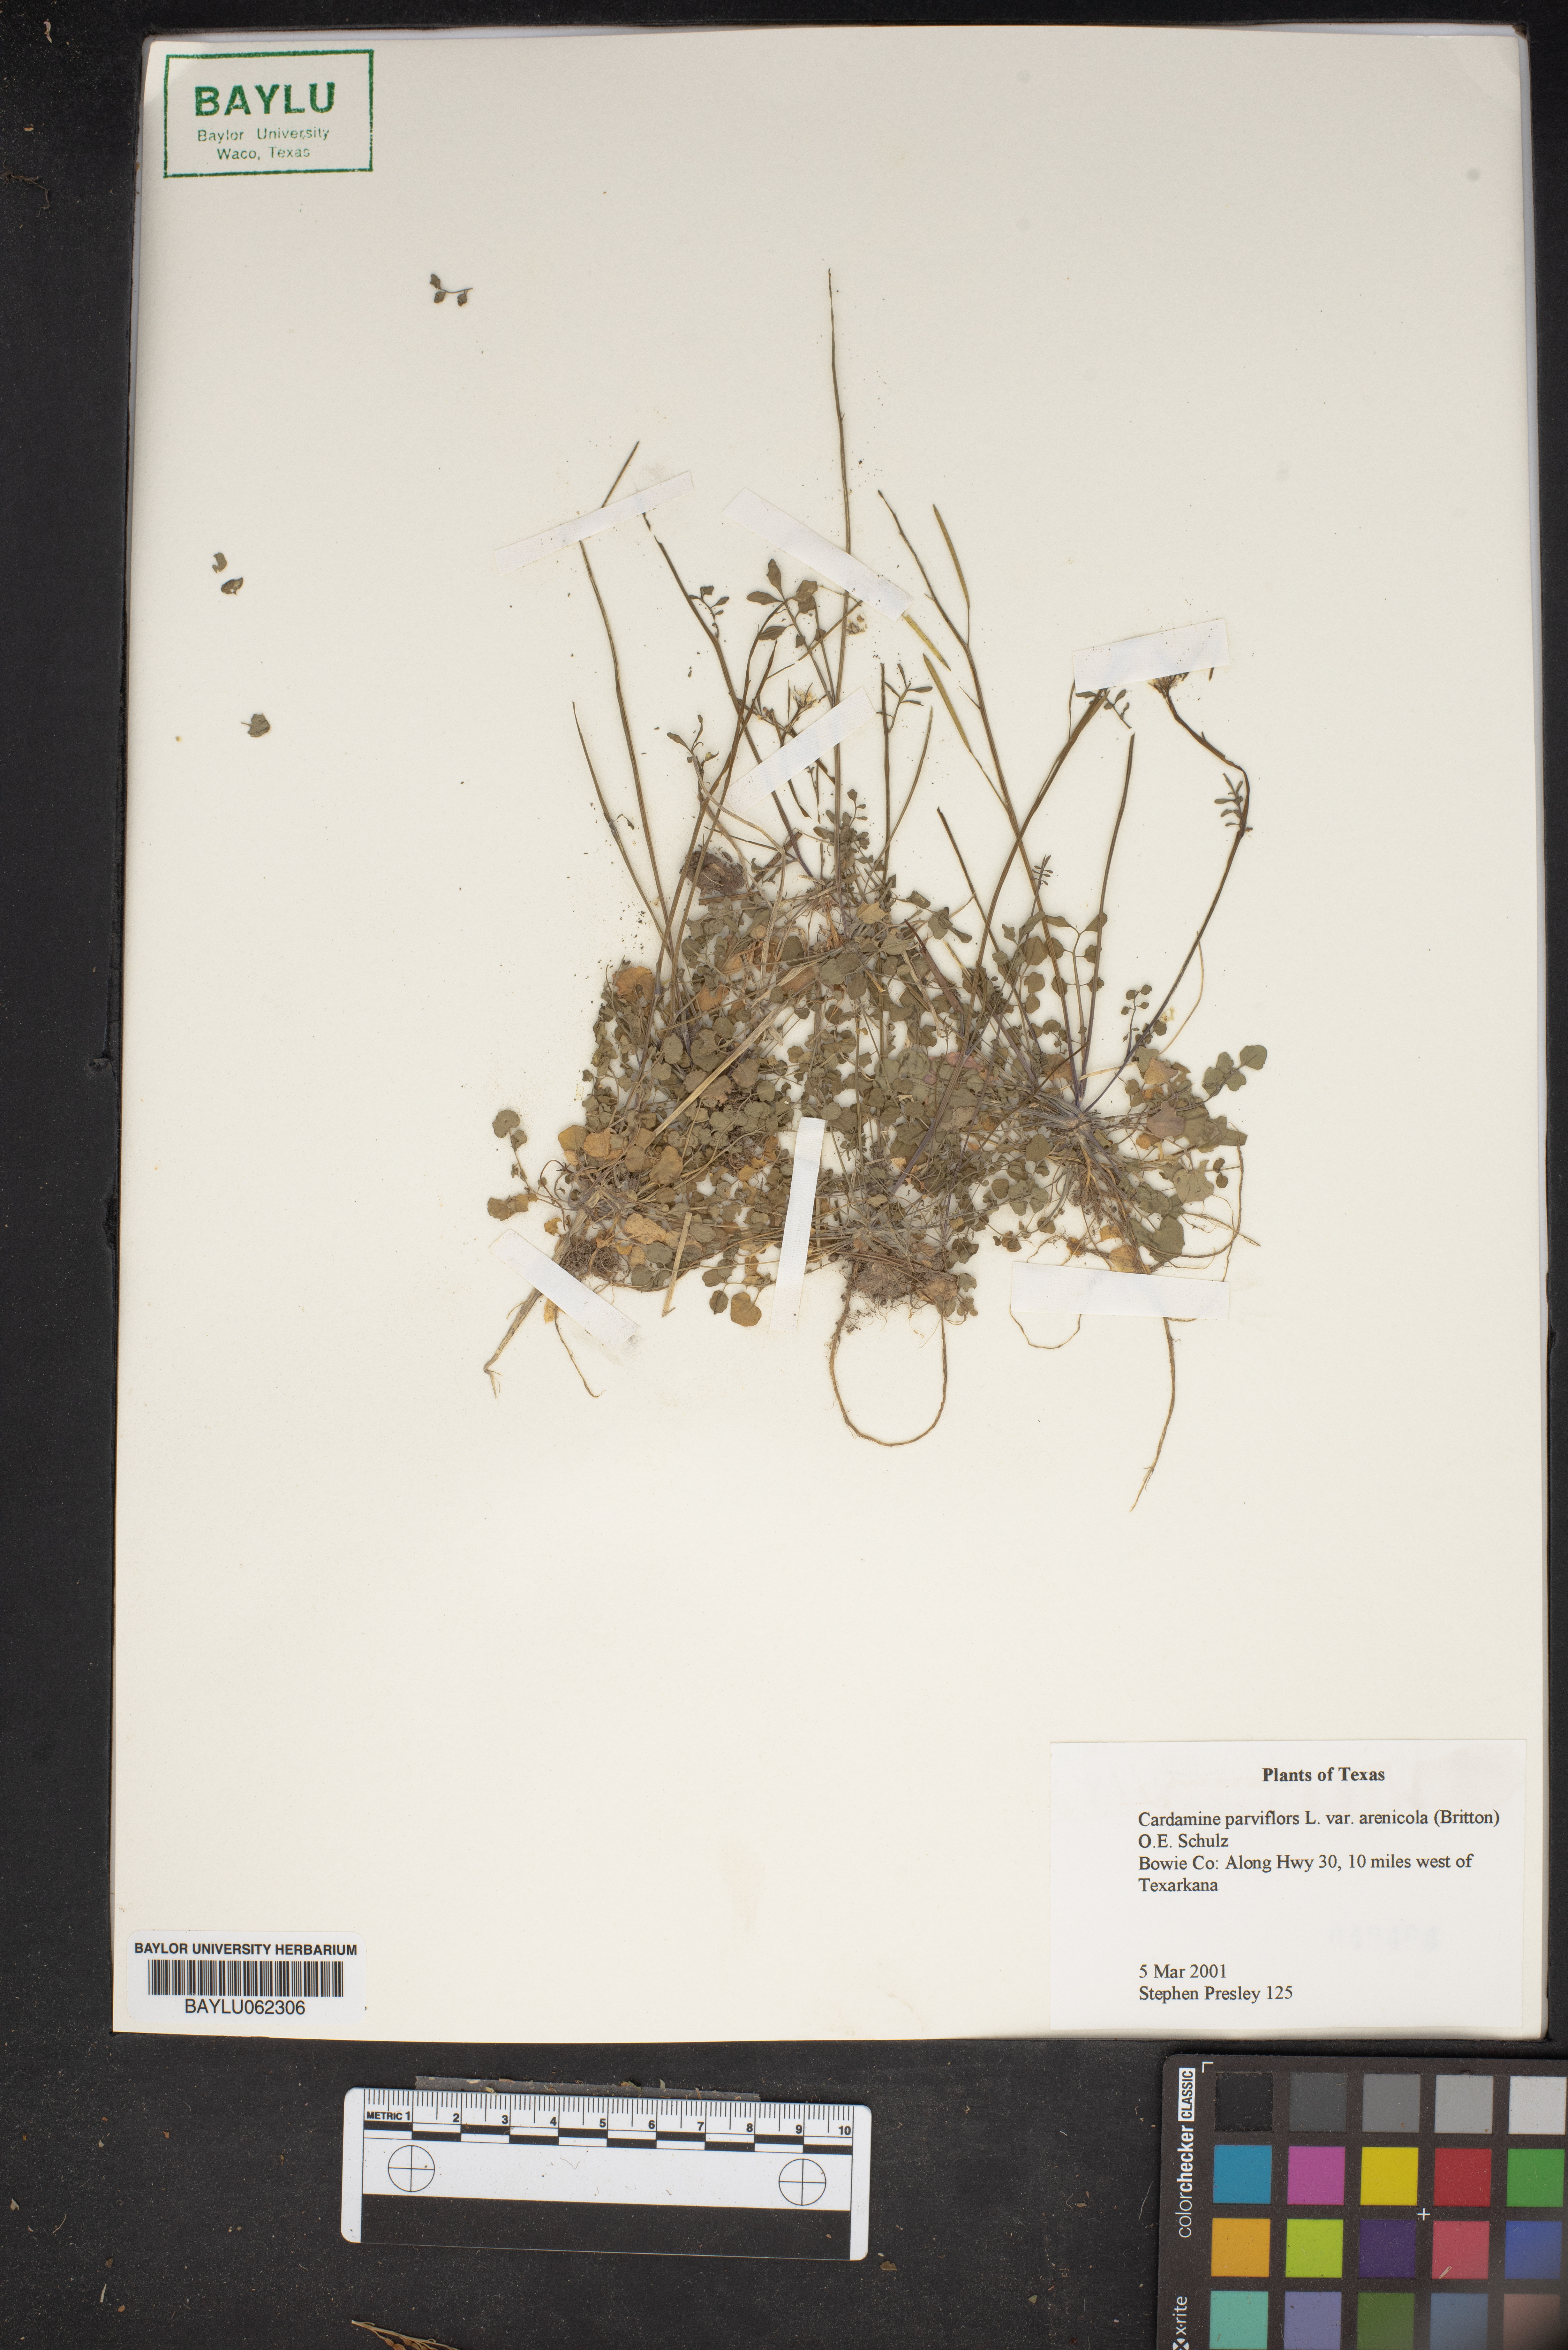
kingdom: Plantae
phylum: Tracheophyta
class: Magnoliopsida
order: Brassicales
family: Brassicaceae
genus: Cardamine
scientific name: Cardamine parviflora
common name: Sand bittercress
